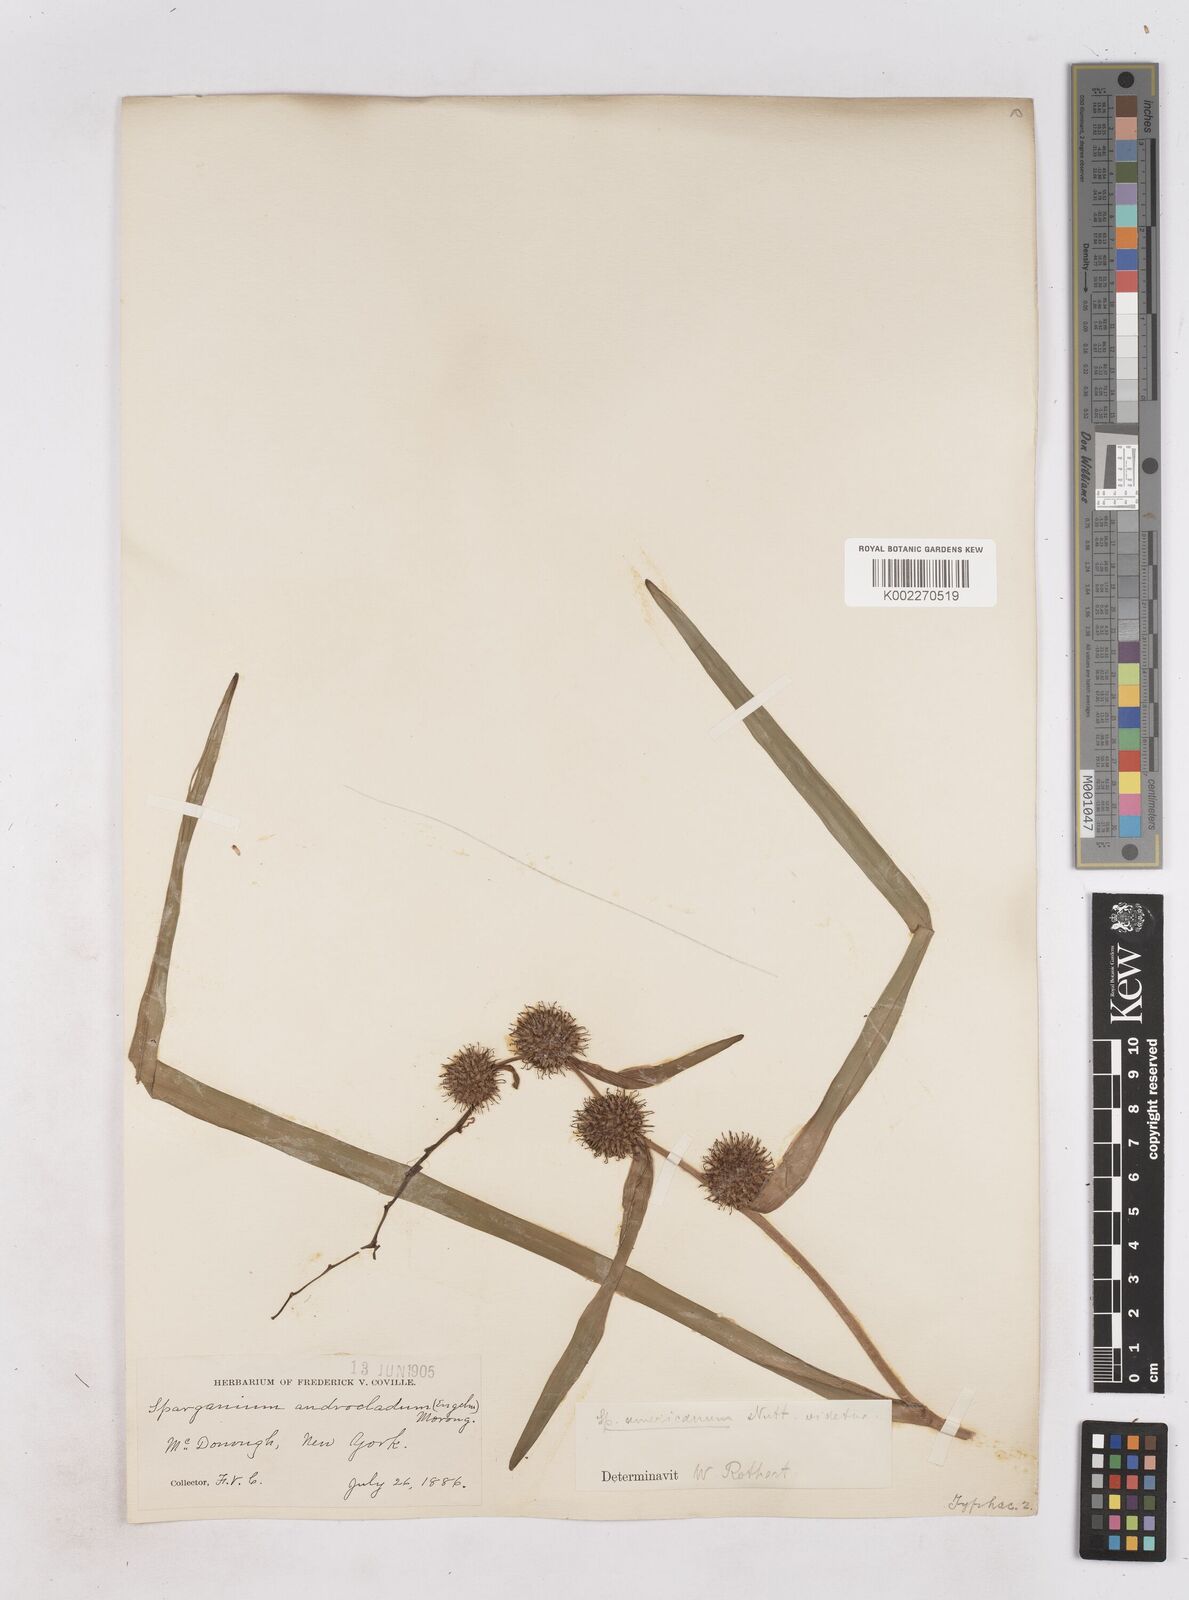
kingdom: Plantae
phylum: Tracheophyta
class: Liliopsida
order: Poales
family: Typhaceae
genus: Sparganium
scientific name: Sparganium americanum
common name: American burreed
